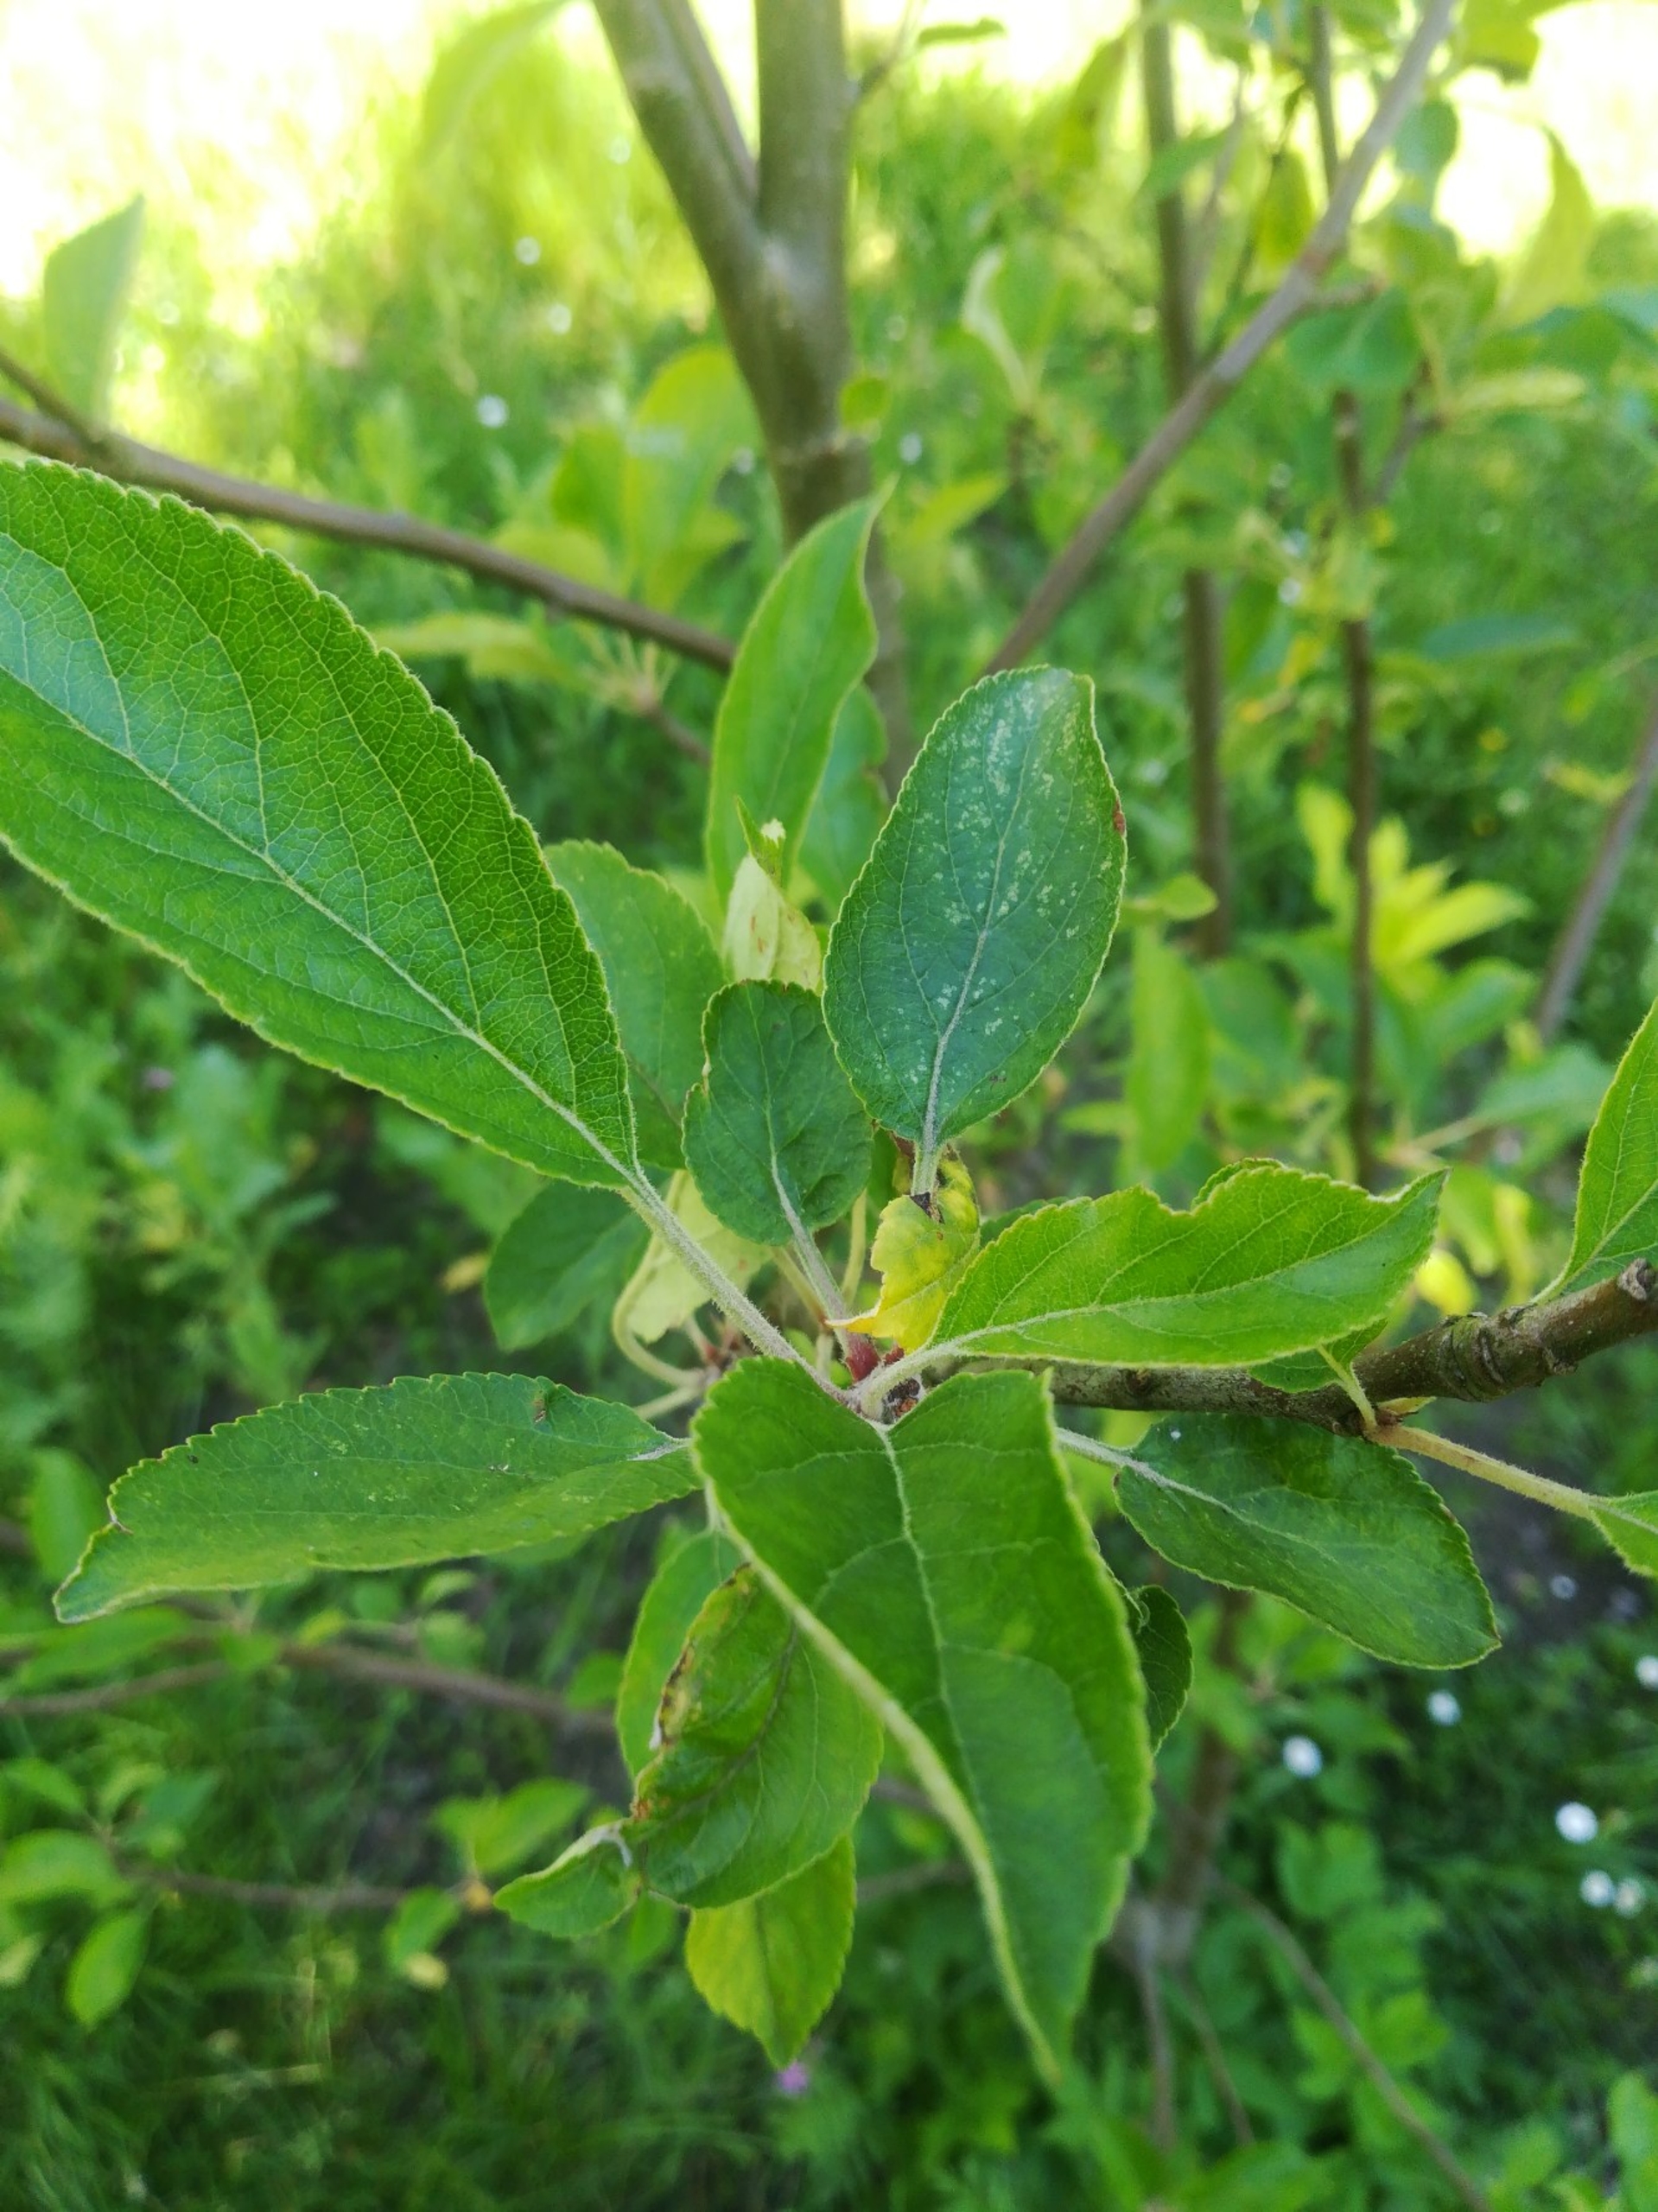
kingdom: Plantae
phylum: Tracheophyta
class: Magnoliopsida
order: Rosales
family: Rosaceae
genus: Malus
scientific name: Malus domestica
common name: Sød-æble
